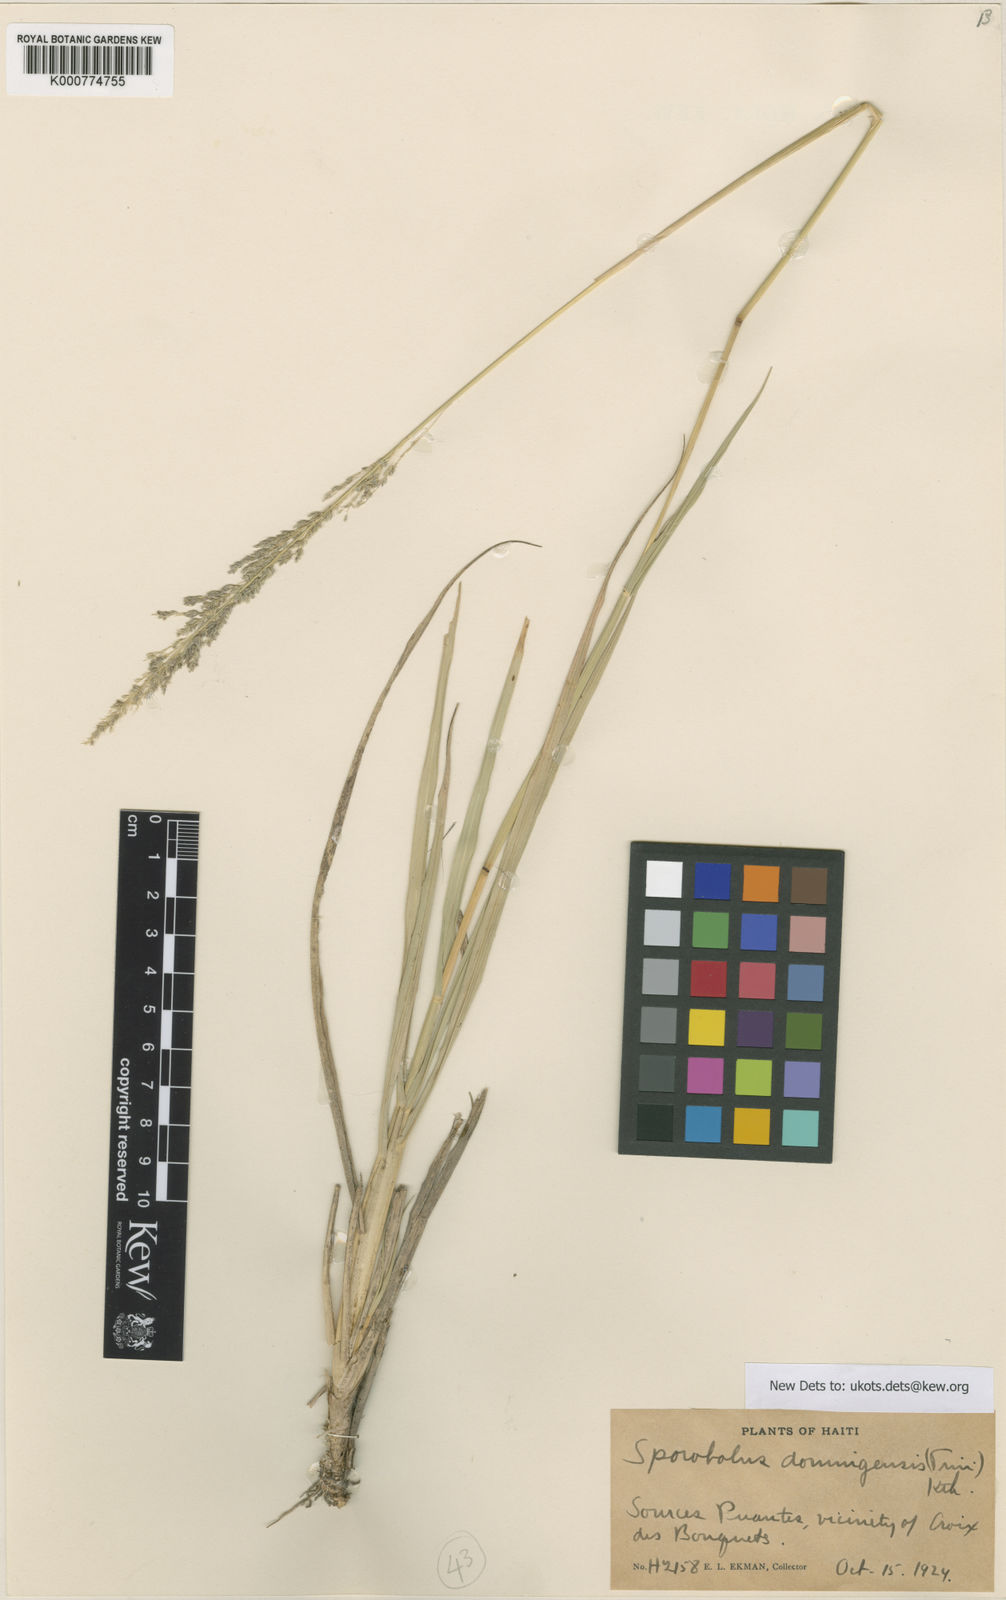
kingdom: Plantae
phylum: Tracheophyta
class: Liliopsida
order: Poales
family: Poaceae
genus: Sporobolus
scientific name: Sporobolus domingensis
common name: Coral dropseed
